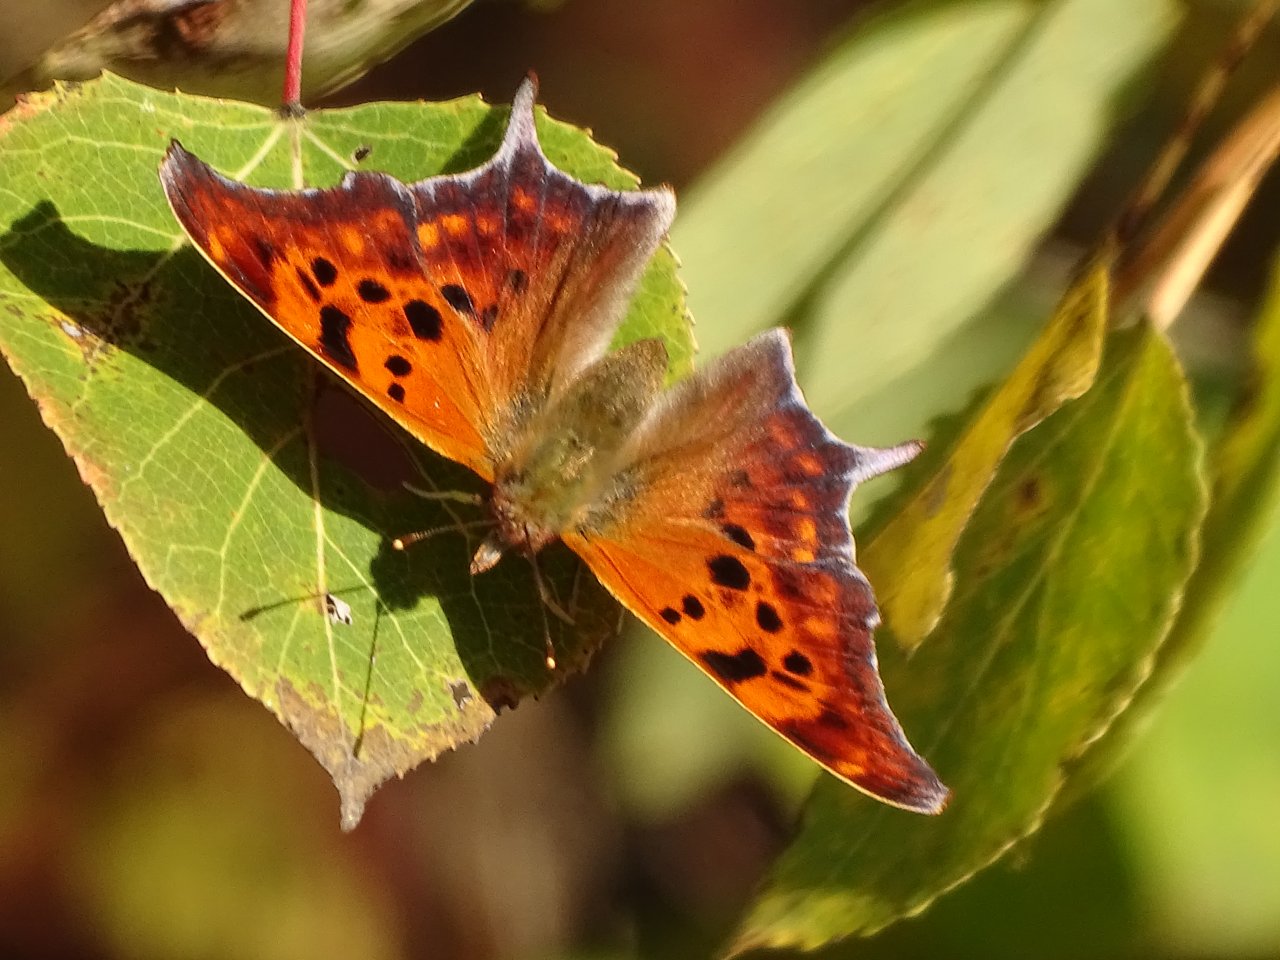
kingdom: Animalia
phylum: Arthropoda
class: Insecta
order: Lepidoptera
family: Nymphalidae
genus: Polygonia
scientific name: Polygonia interrogationis
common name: Question Mark
